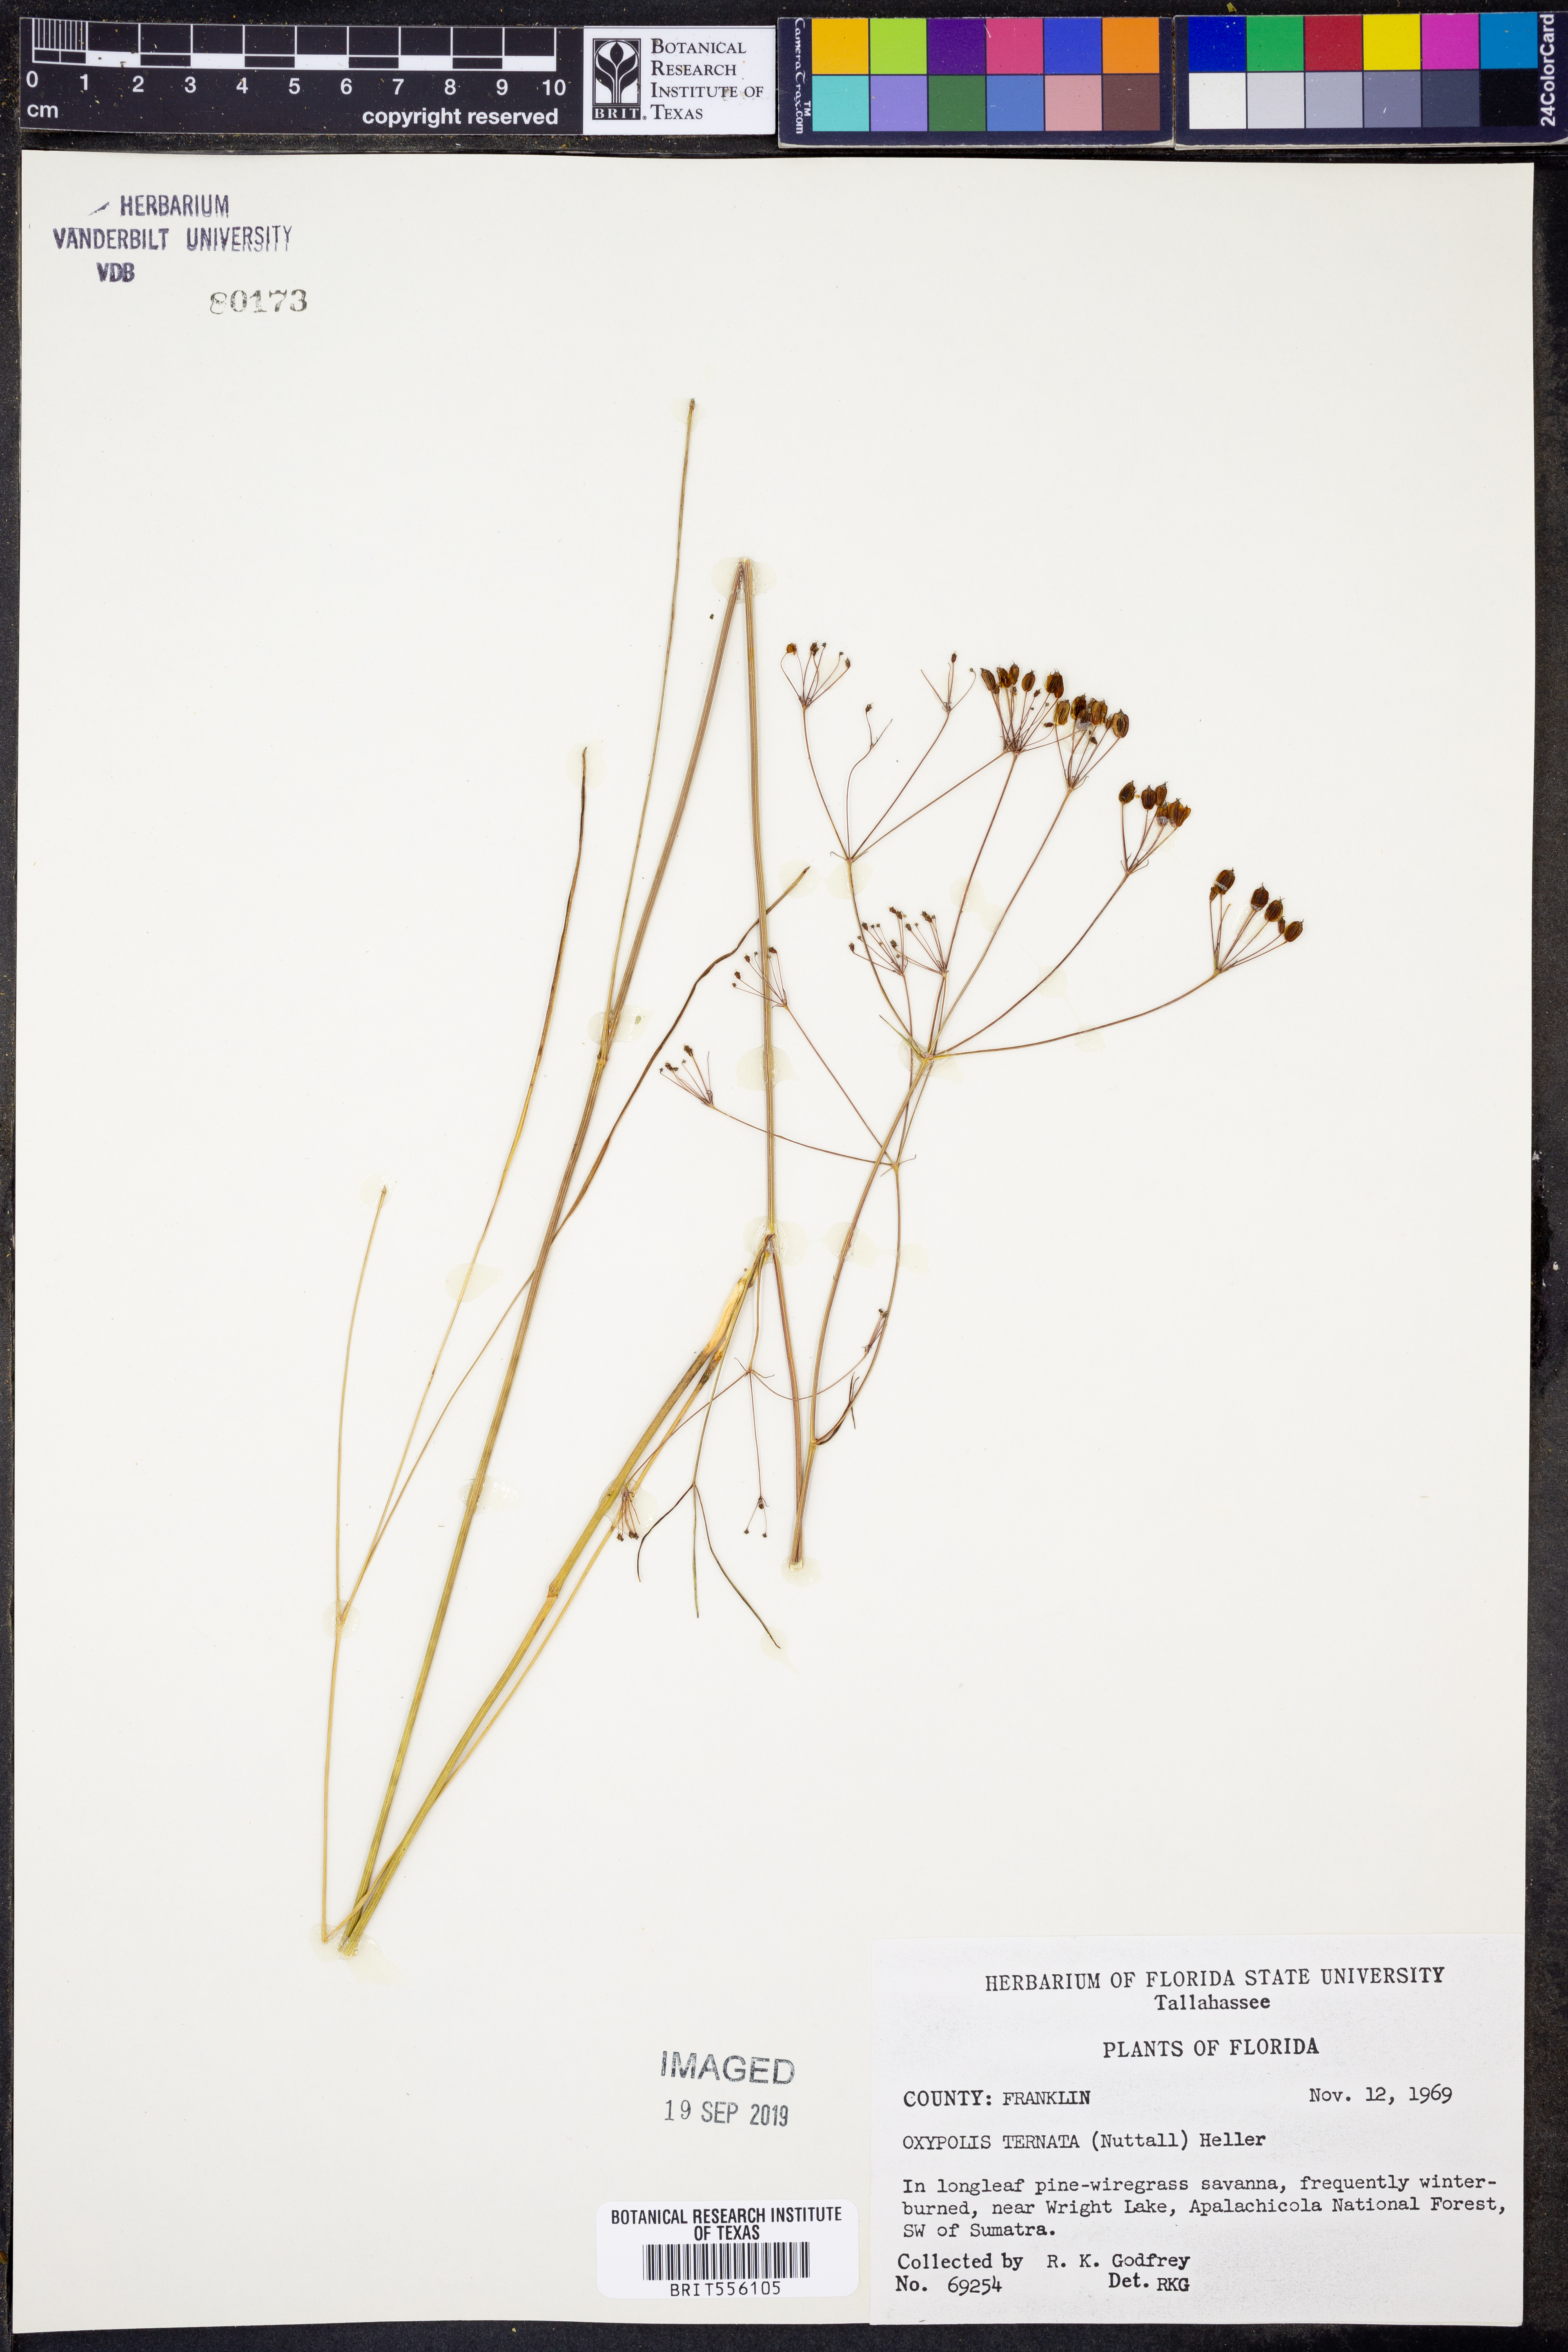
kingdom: Plantae
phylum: Tracheophyta
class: Magnoliopsida
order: Apiales
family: Apiaceae
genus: Oxypolis
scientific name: Oxypolis ternata
